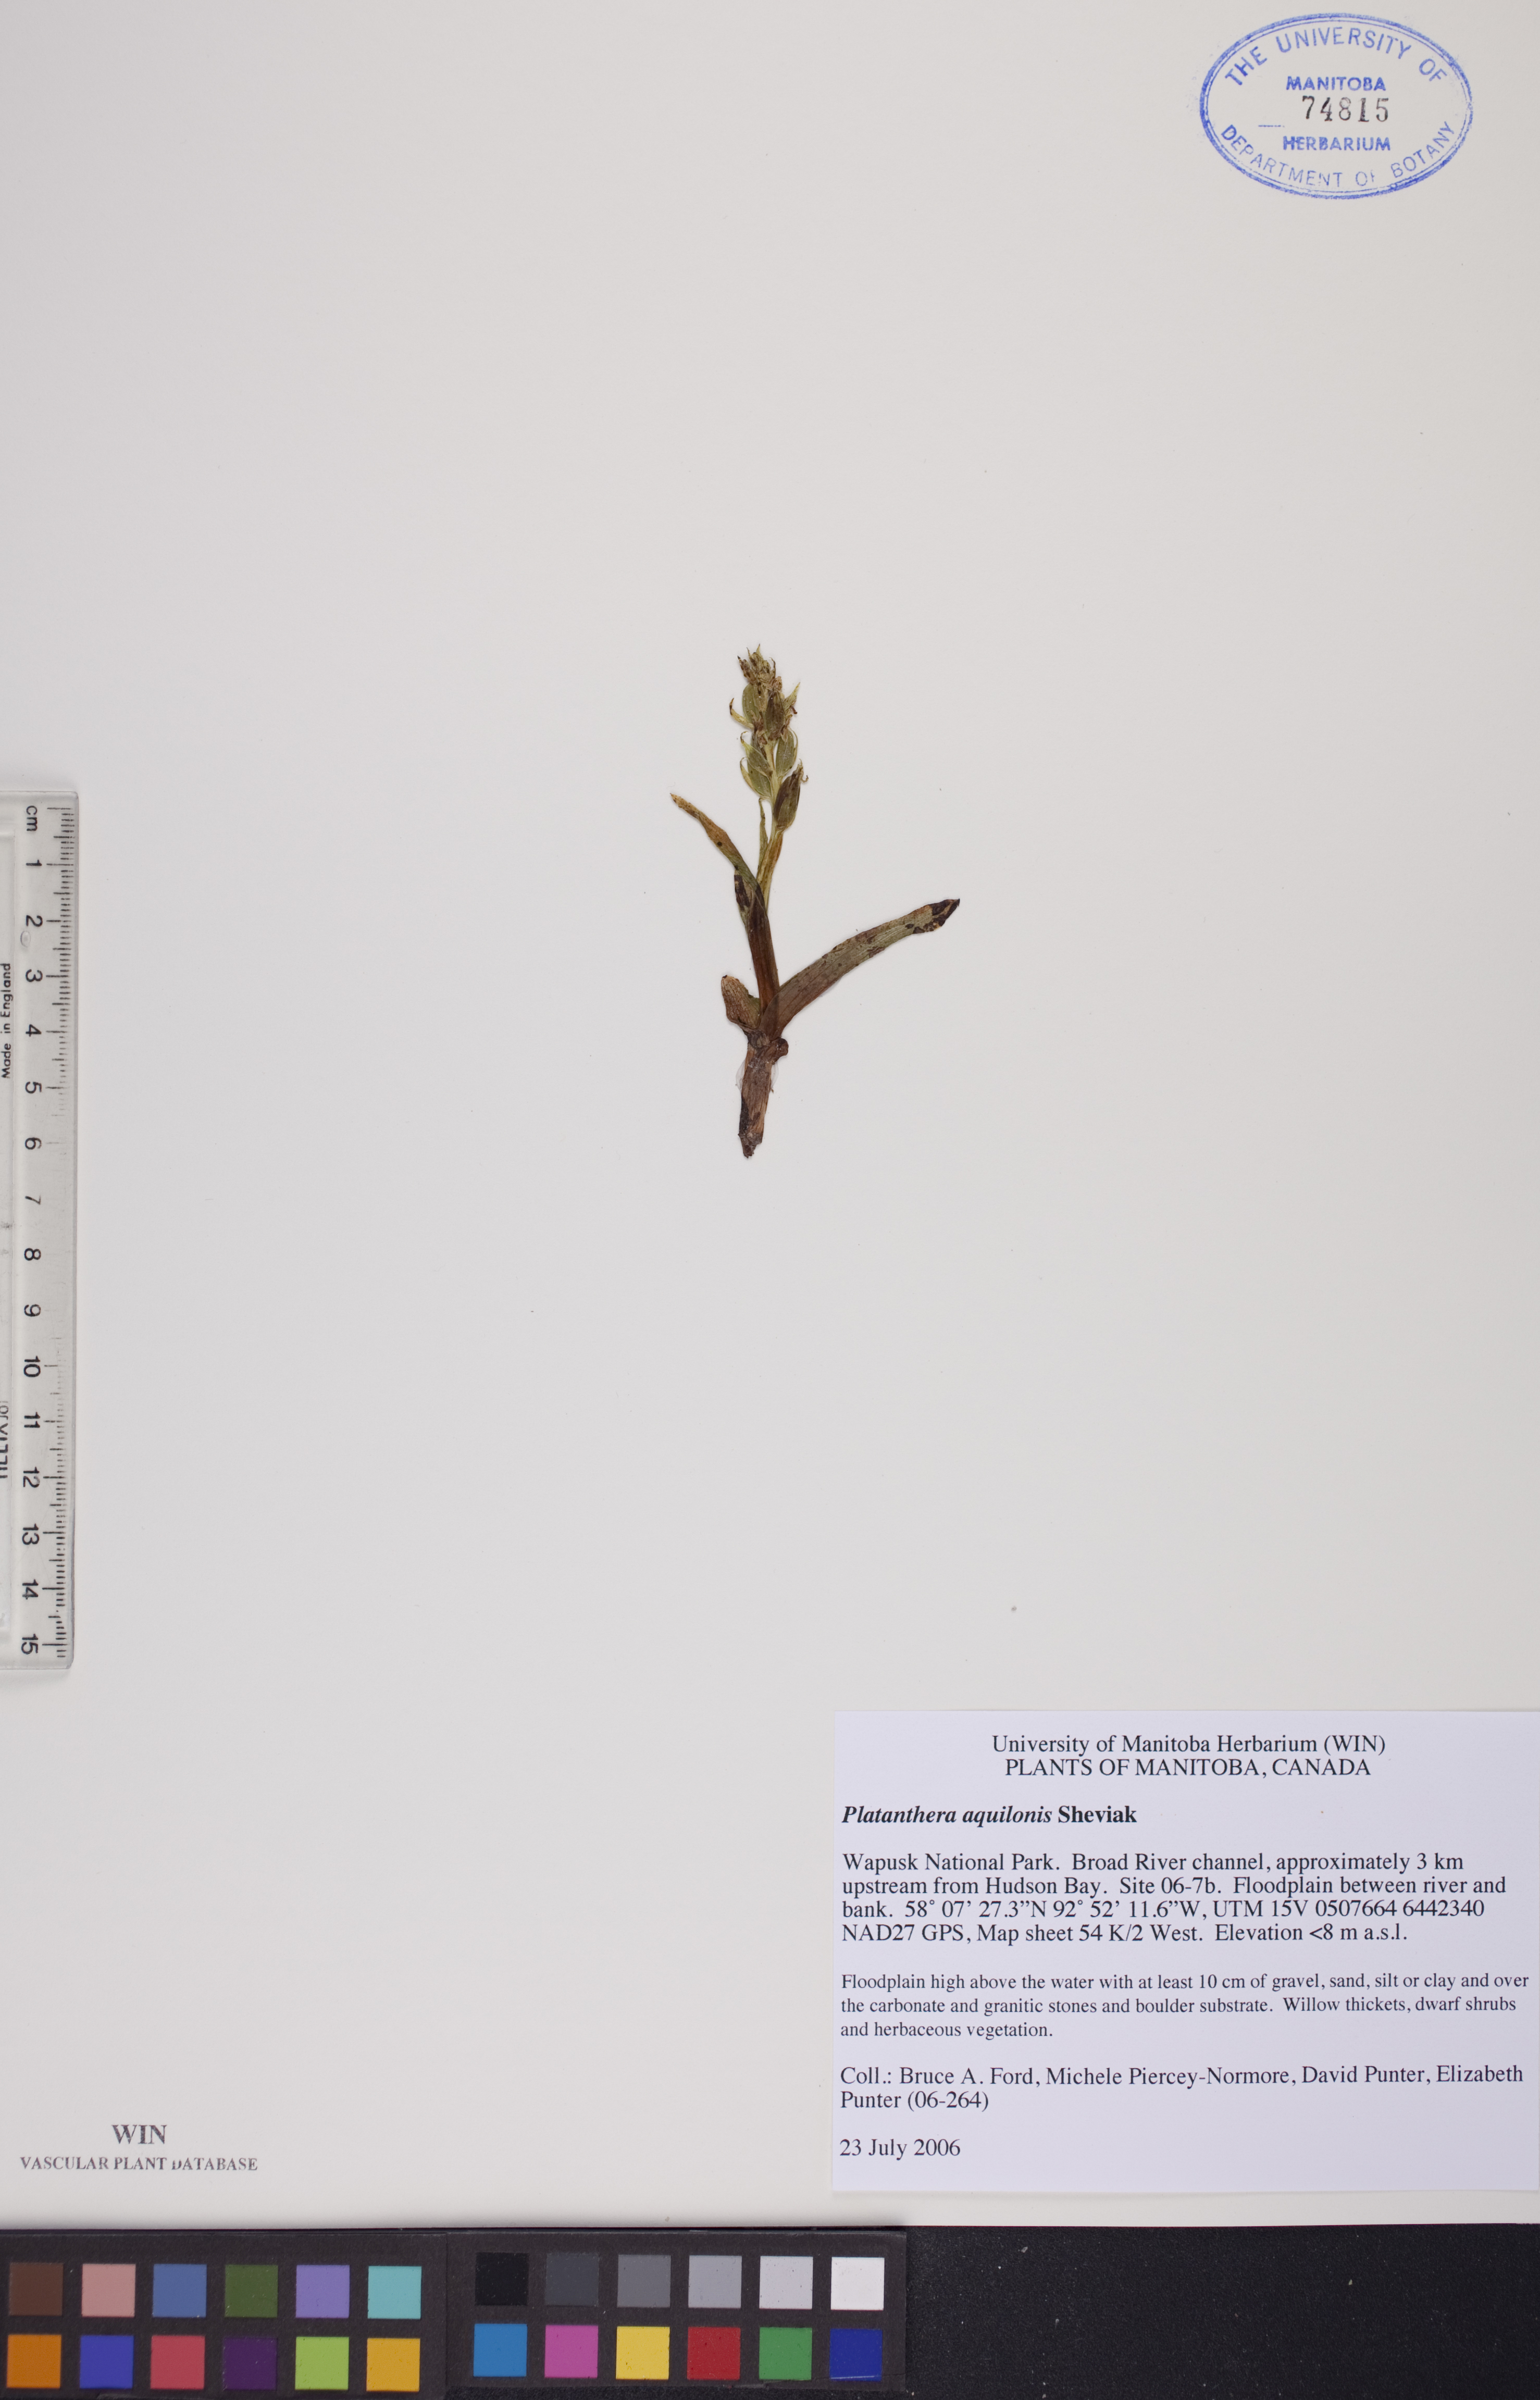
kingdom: Plantae
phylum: Tracheophyta
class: Liliopsida
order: Asparagales
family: Orchidaceae
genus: Platanthera
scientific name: Platanthera aquilonis
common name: Northern green orchid
